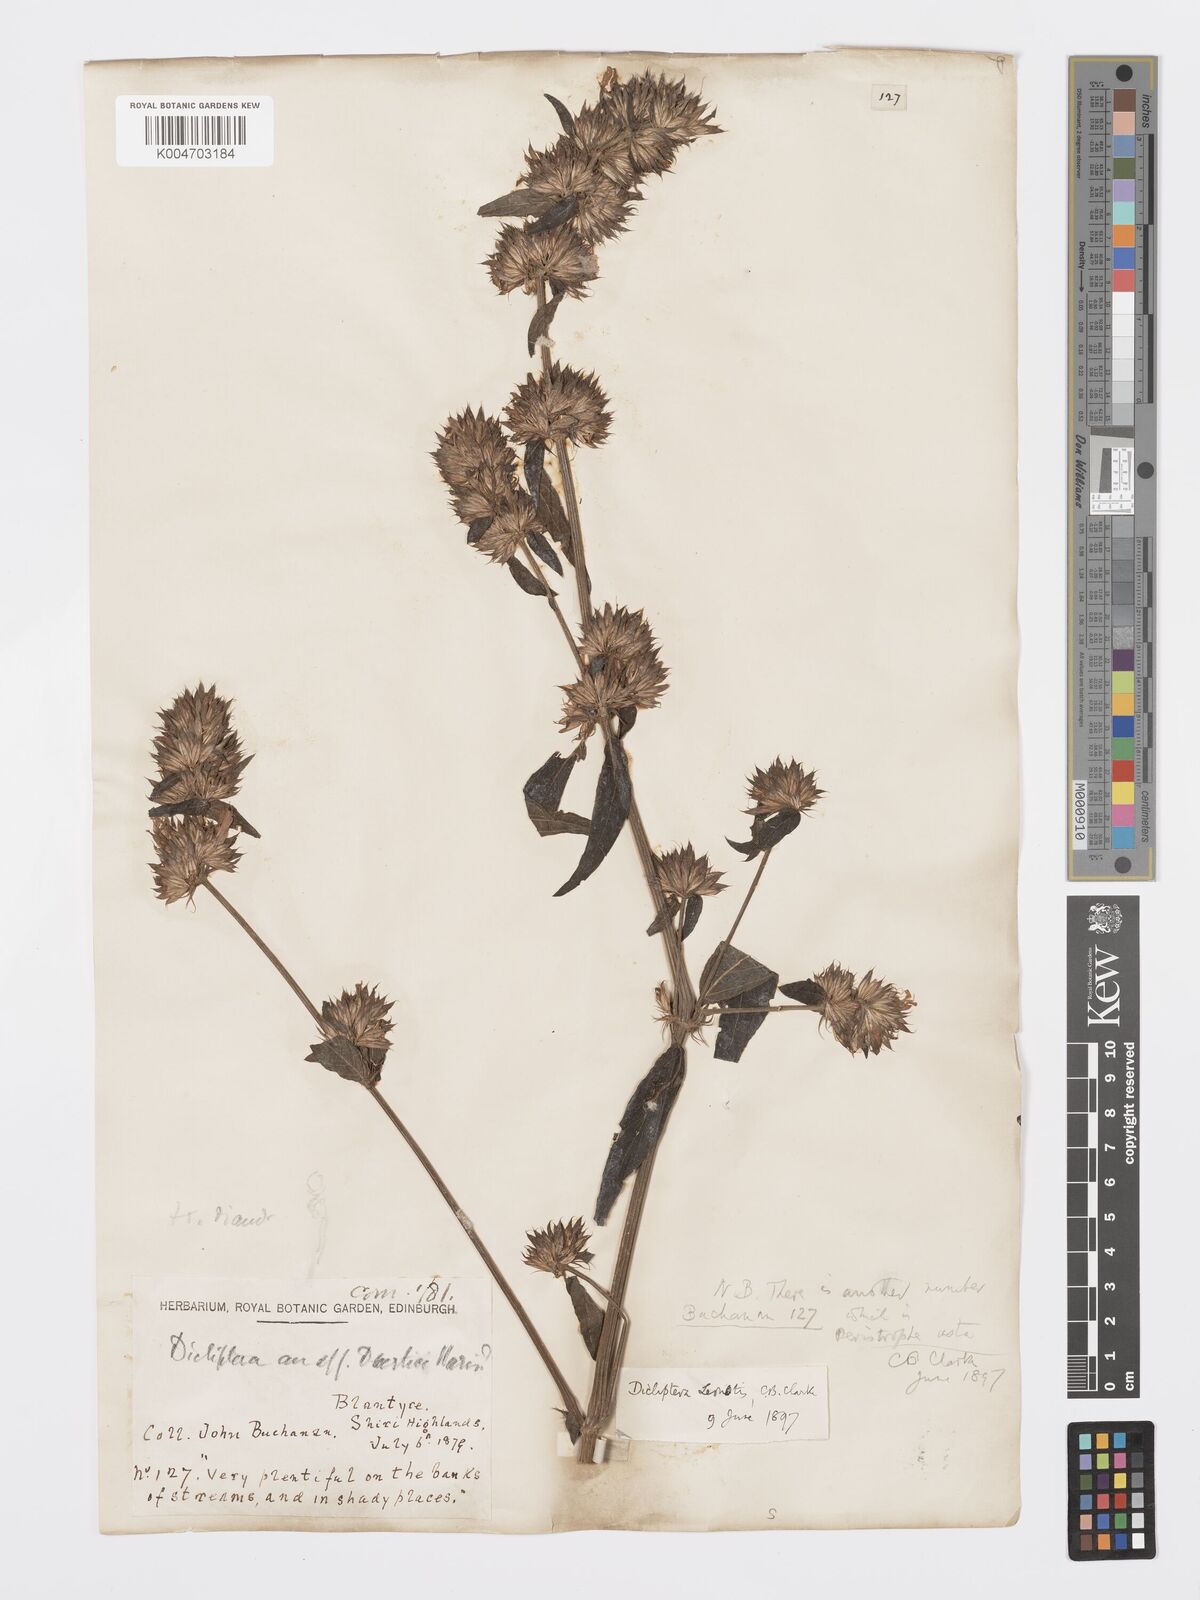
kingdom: Plantae
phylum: Tracheophyta
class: Magnoliopsida
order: Lamiales
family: Acanthaceae
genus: Dicliptera
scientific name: Dicliptera clinopodia
